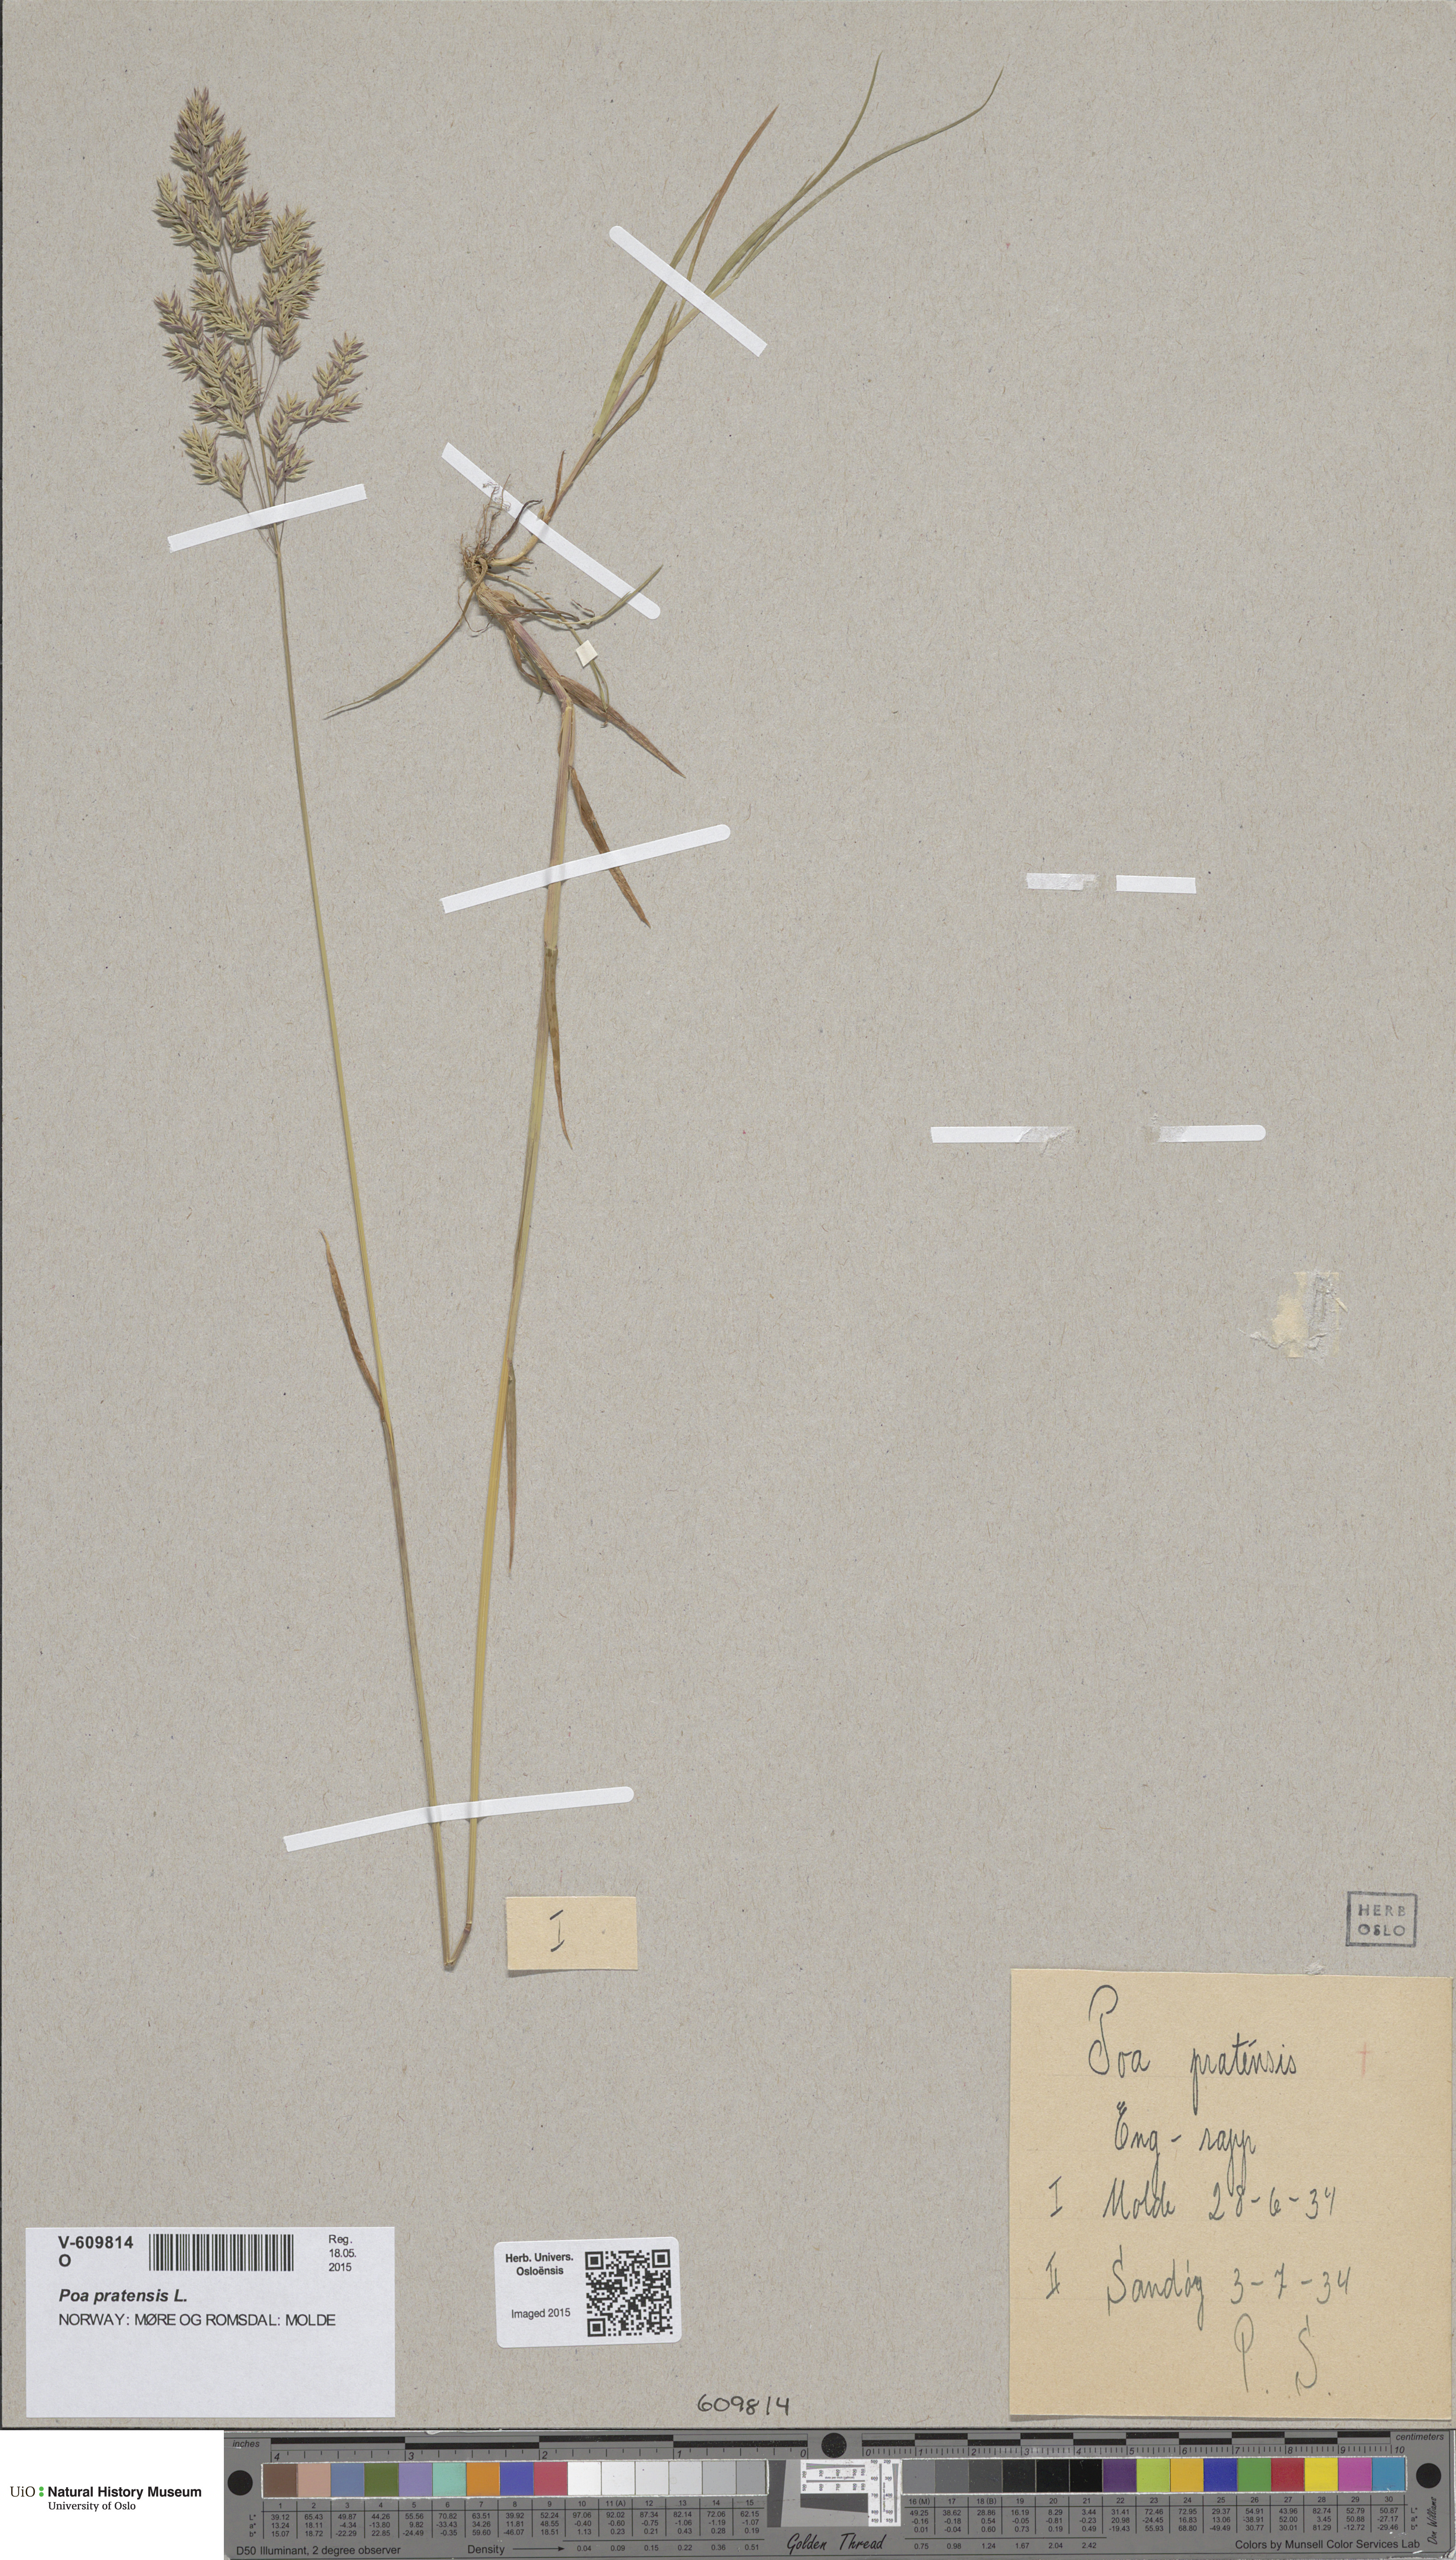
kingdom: Plantae
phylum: Tracheophyta
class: Liliopsida
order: Poales
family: Poaceae
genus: Poa
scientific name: Poa pratensis
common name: Kentucky bluegrass
